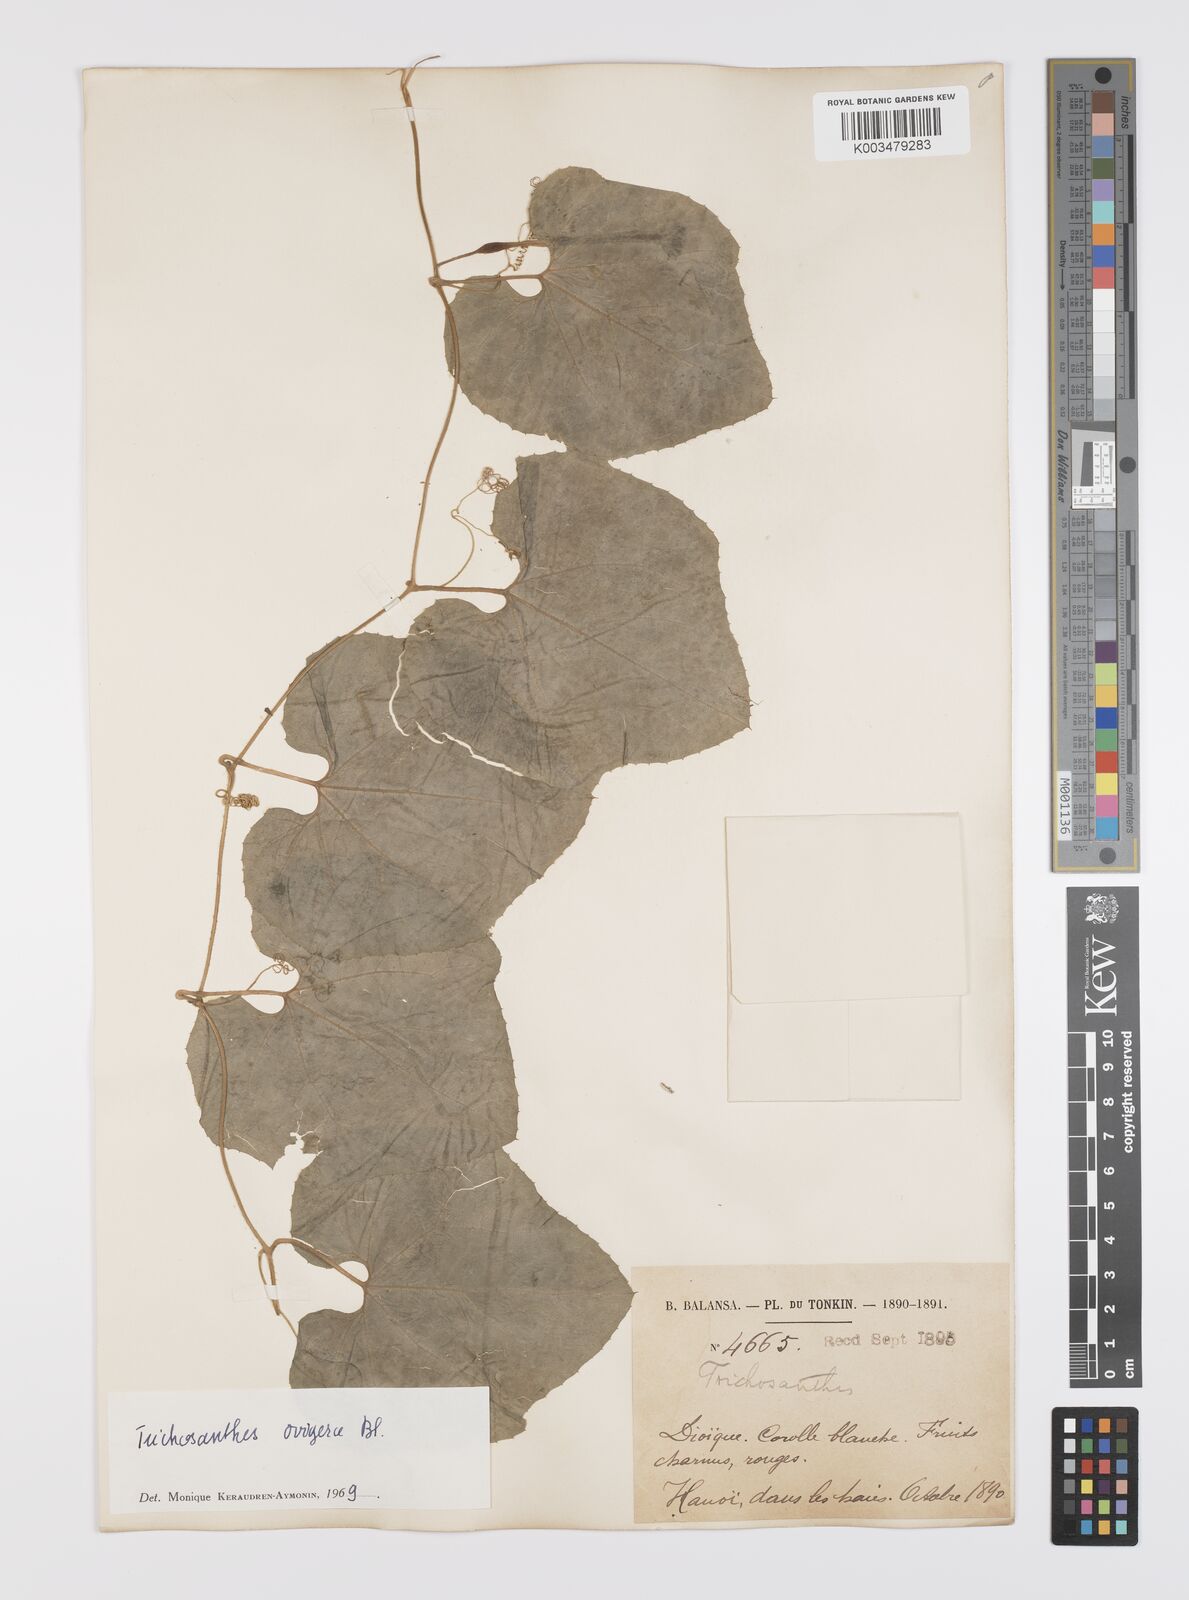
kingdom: Plantae
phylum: Tracheophyta
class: Magnoliopsida
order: Cucurbitales
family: Cucurbitaceae
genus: Trichosanthes
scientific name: Trichosanthes ovigera
